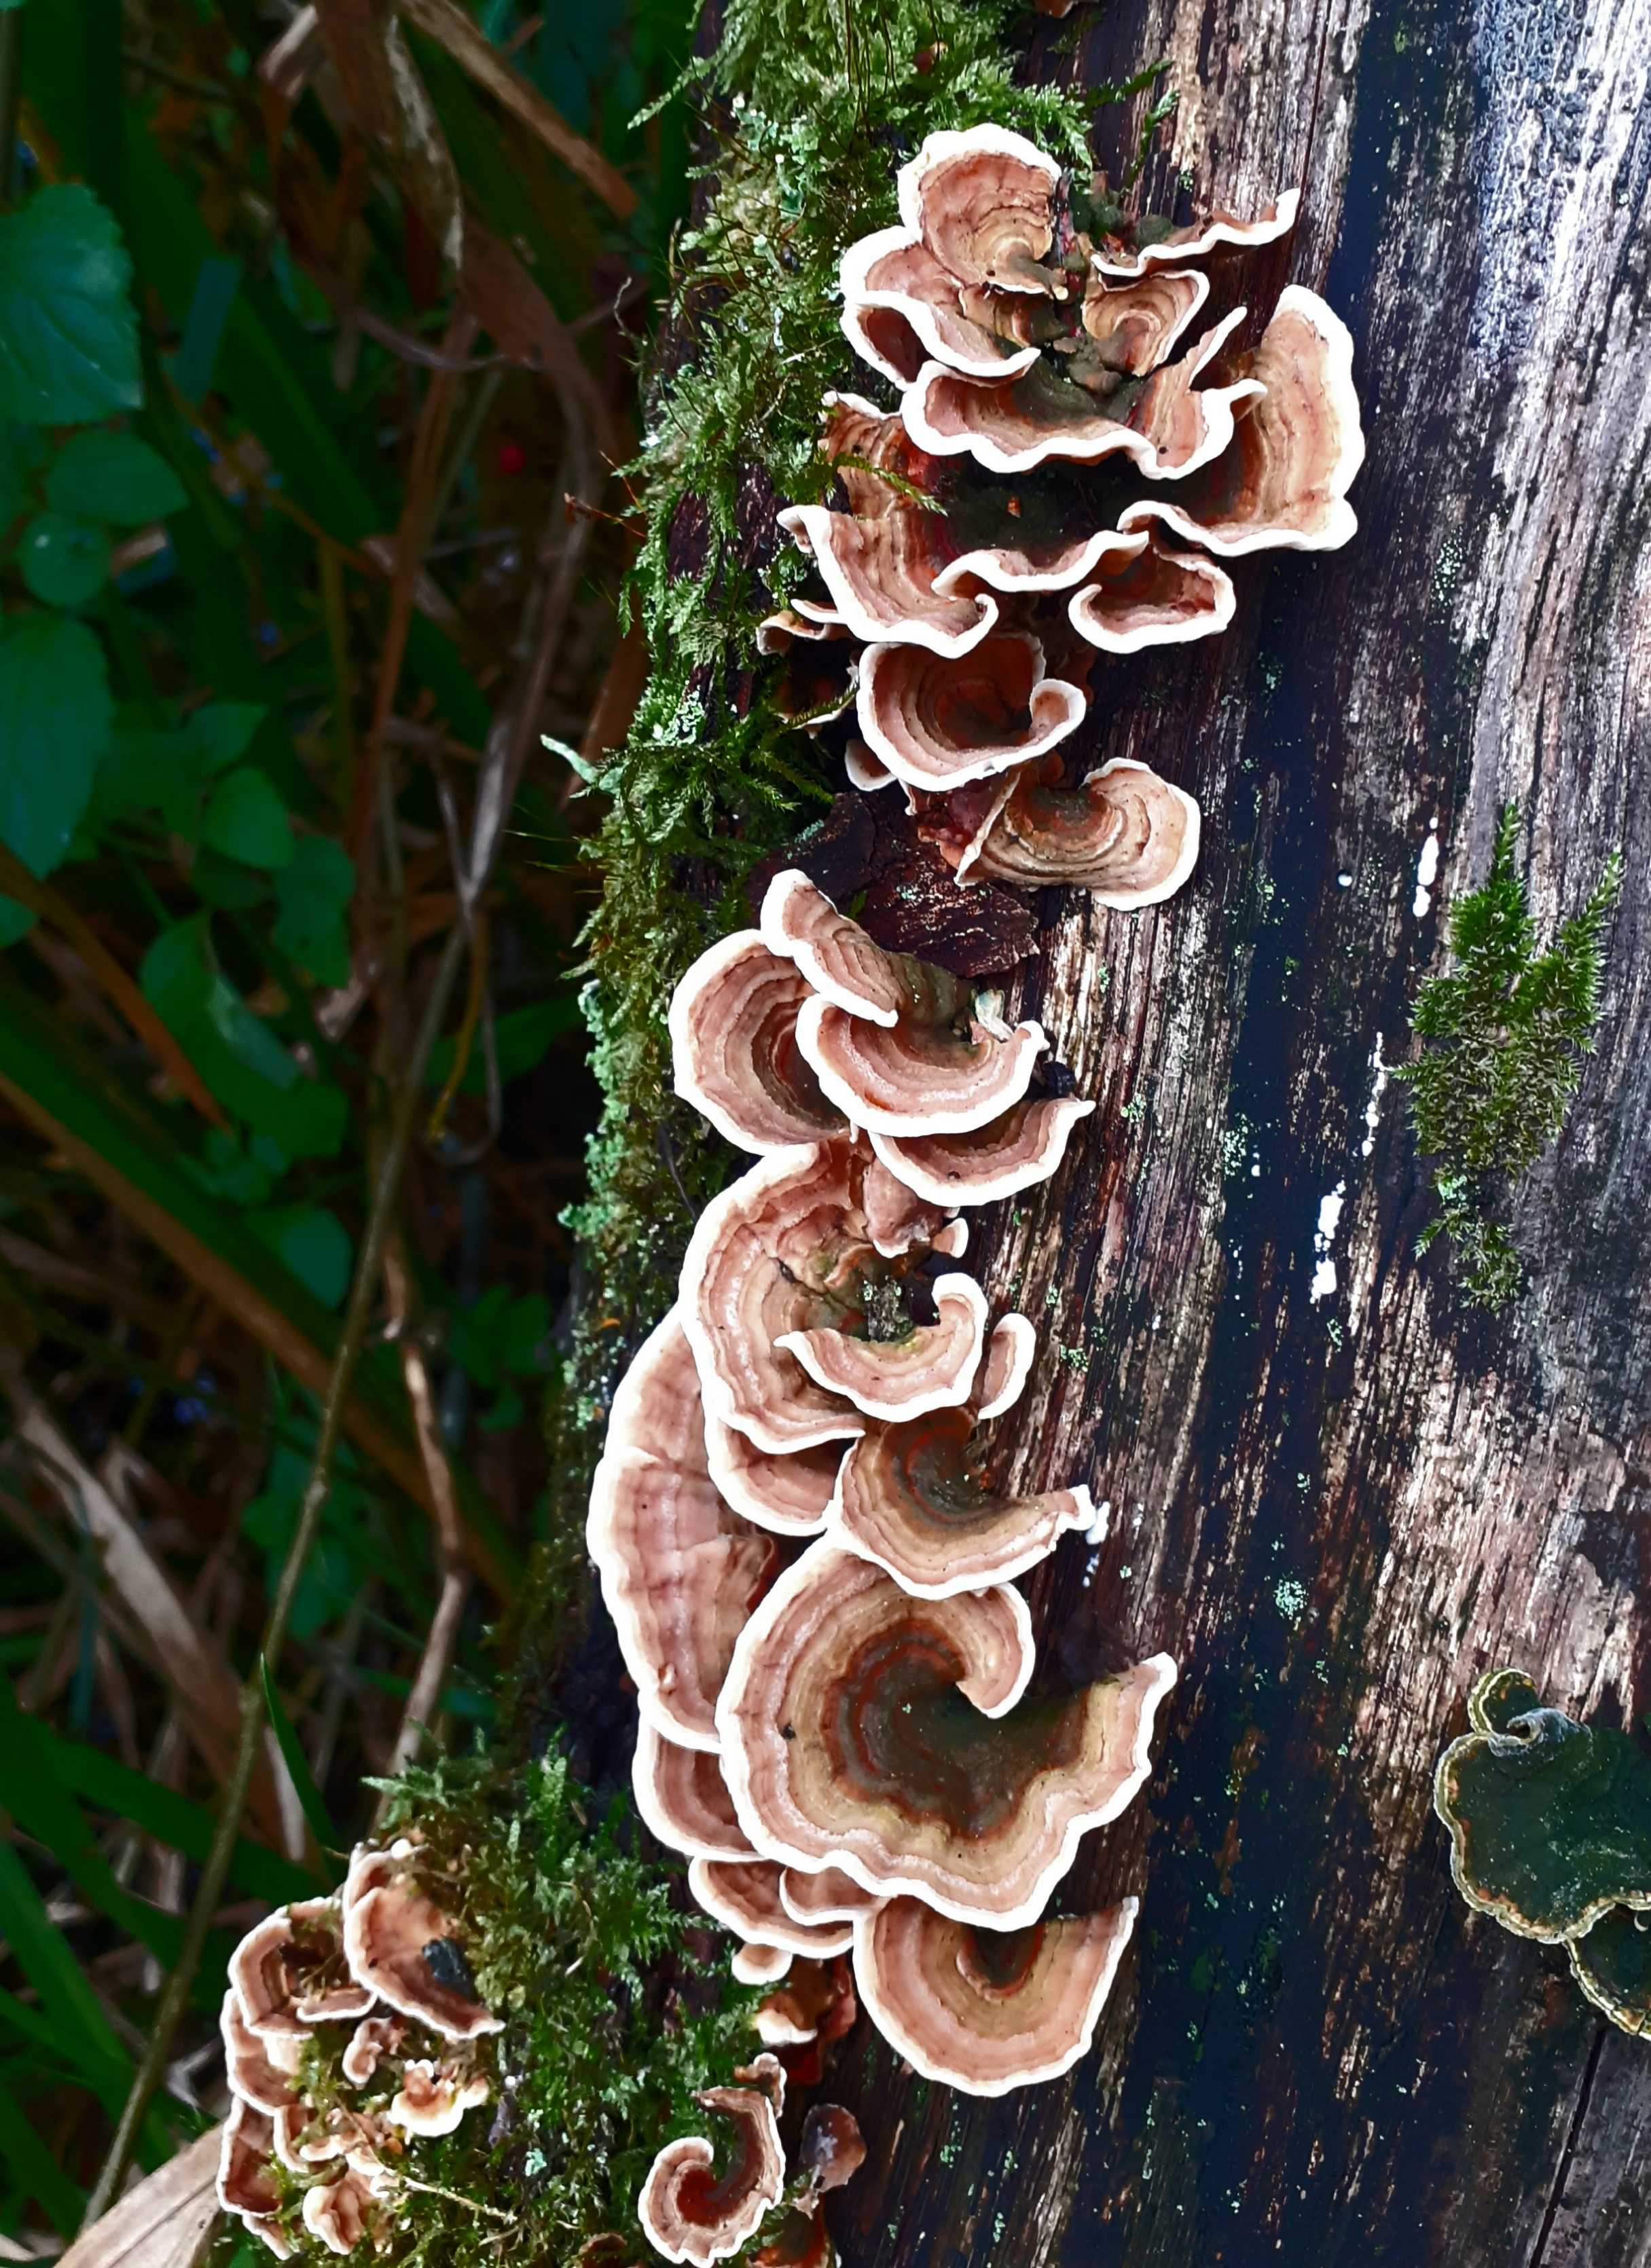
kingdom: Fungi
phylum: Basidiomycota
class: Agaricomycetes
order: Russulales
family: Stereaceae
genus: Stereum
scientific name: Stereum subtomentosum
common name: smuk lædersvamp
